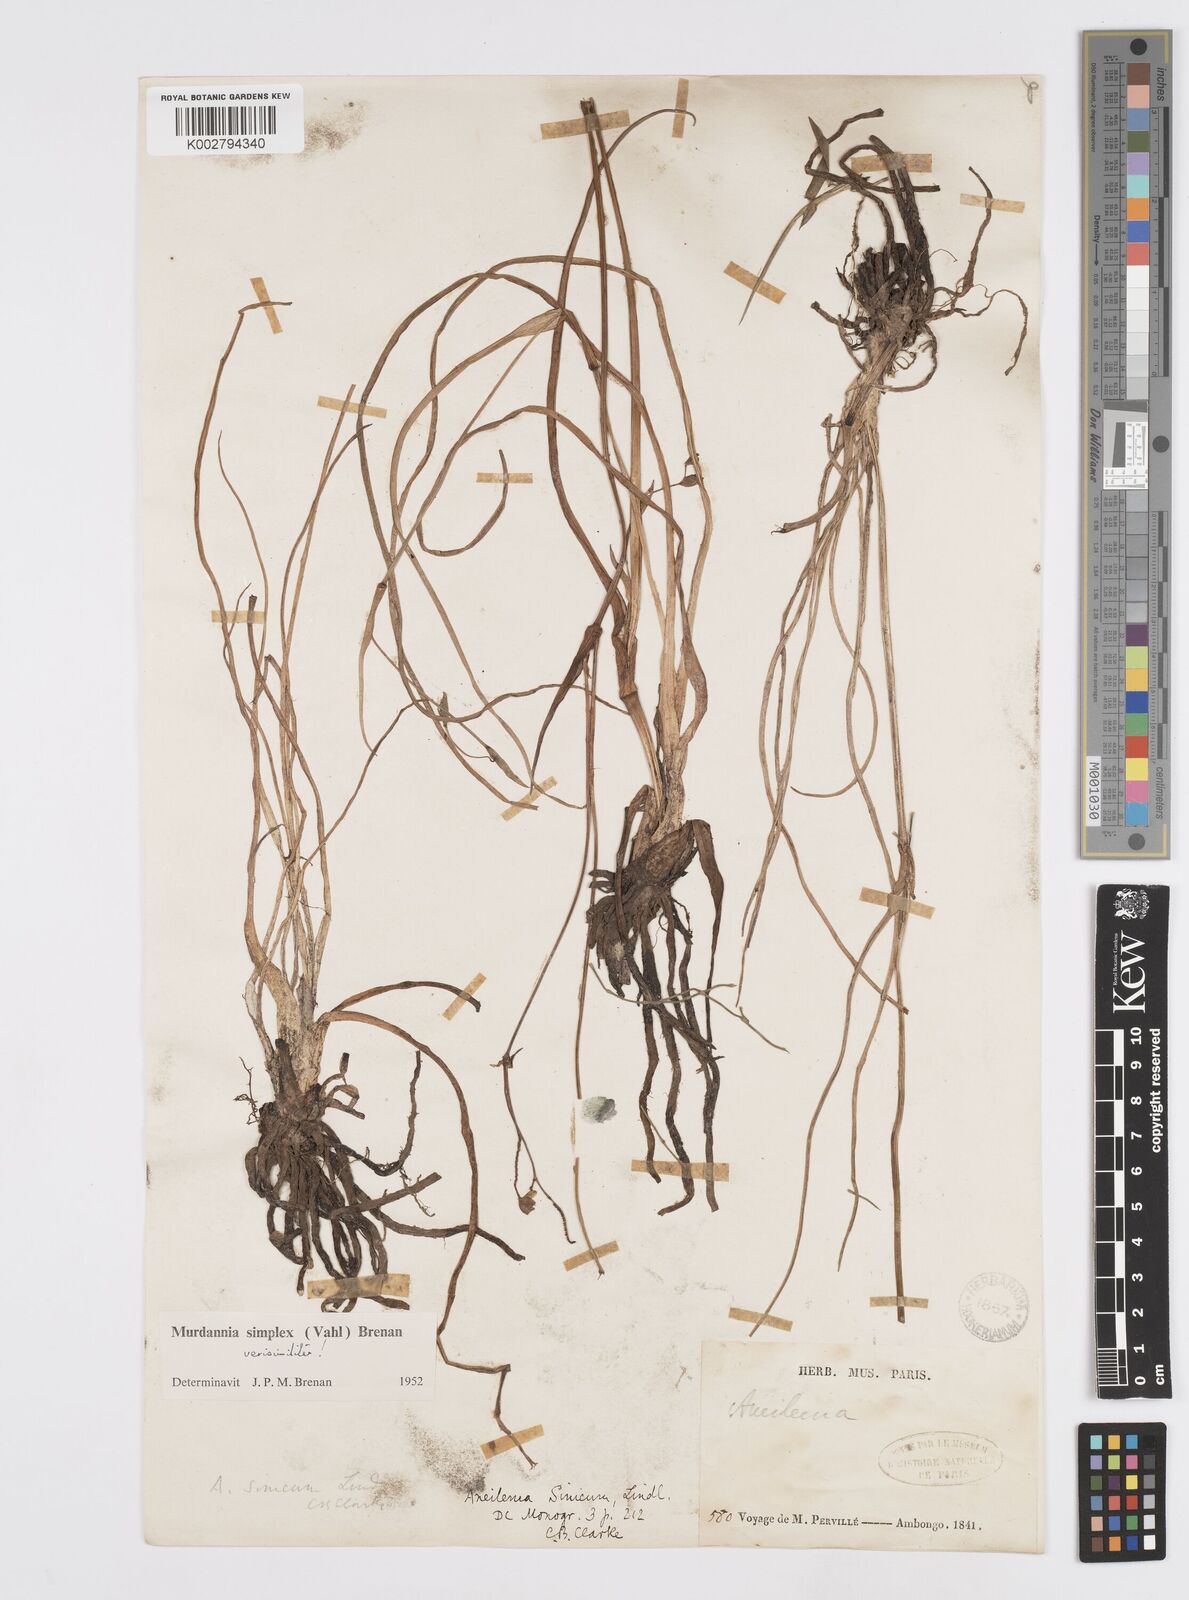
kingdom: Plantae
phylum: Tracheophyta
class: Liliopsida
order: Commelinales
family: Commelinaceae
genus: Murdannia
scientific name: Murdannia simplex
